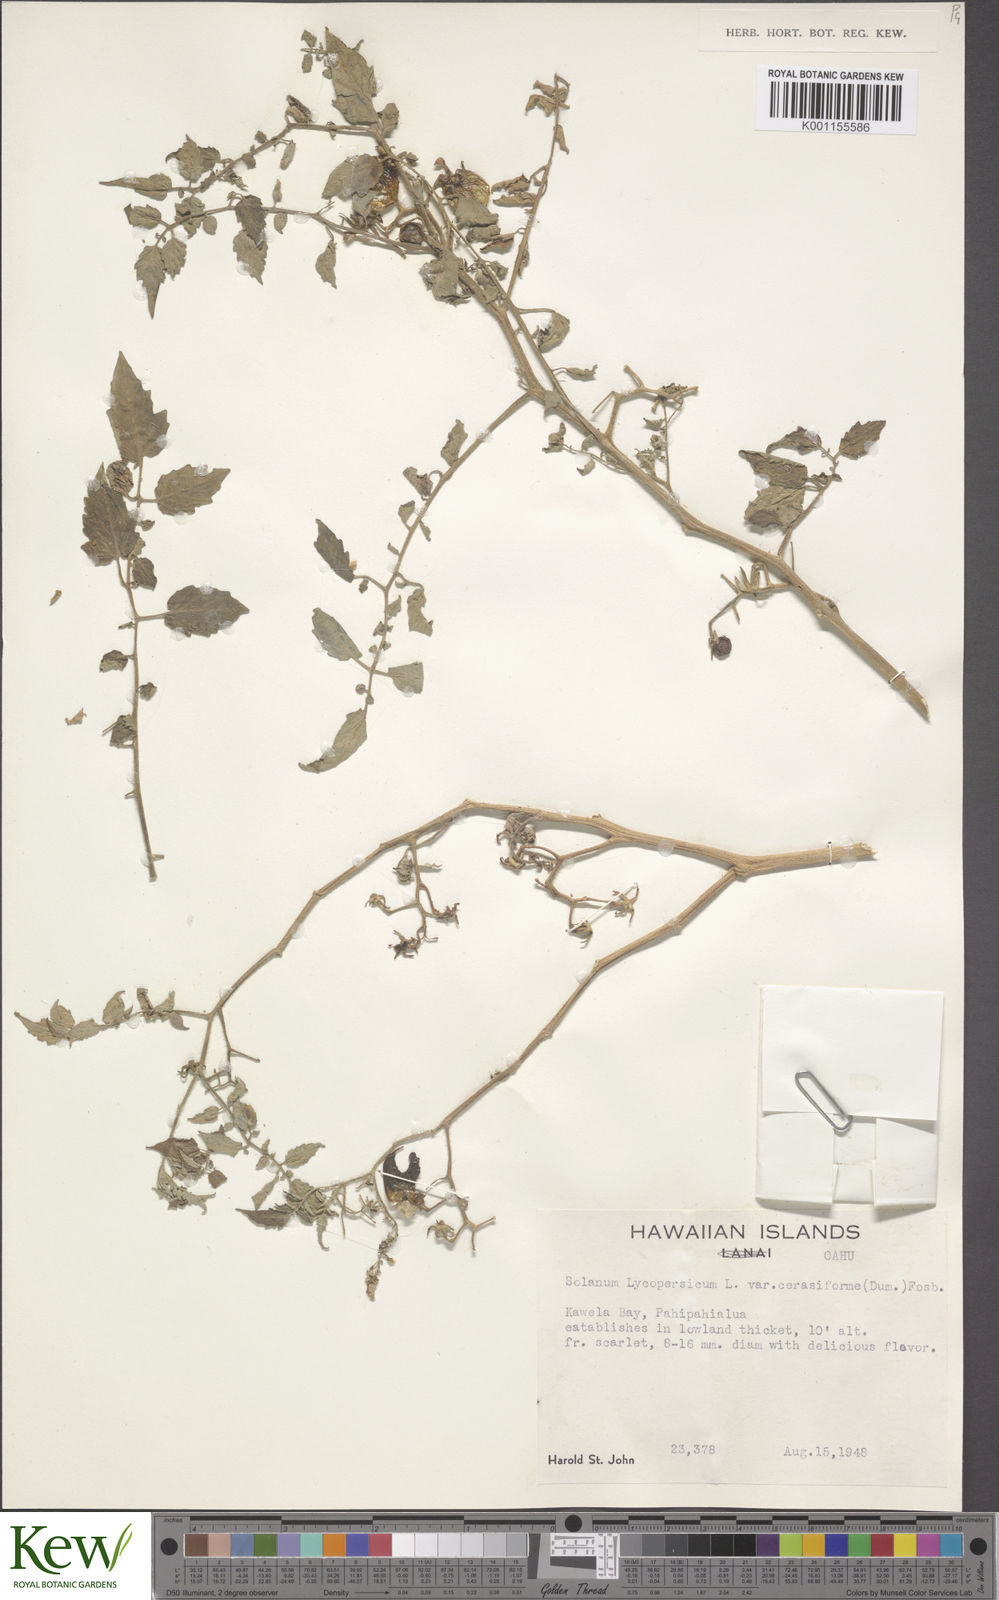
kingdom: Plantae
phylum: Tracheophyta
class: Magnoliopsida
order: Solanales
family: Solanaceae
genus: Solanum
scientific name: Solanum lycopersicum
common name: Garden tomato
